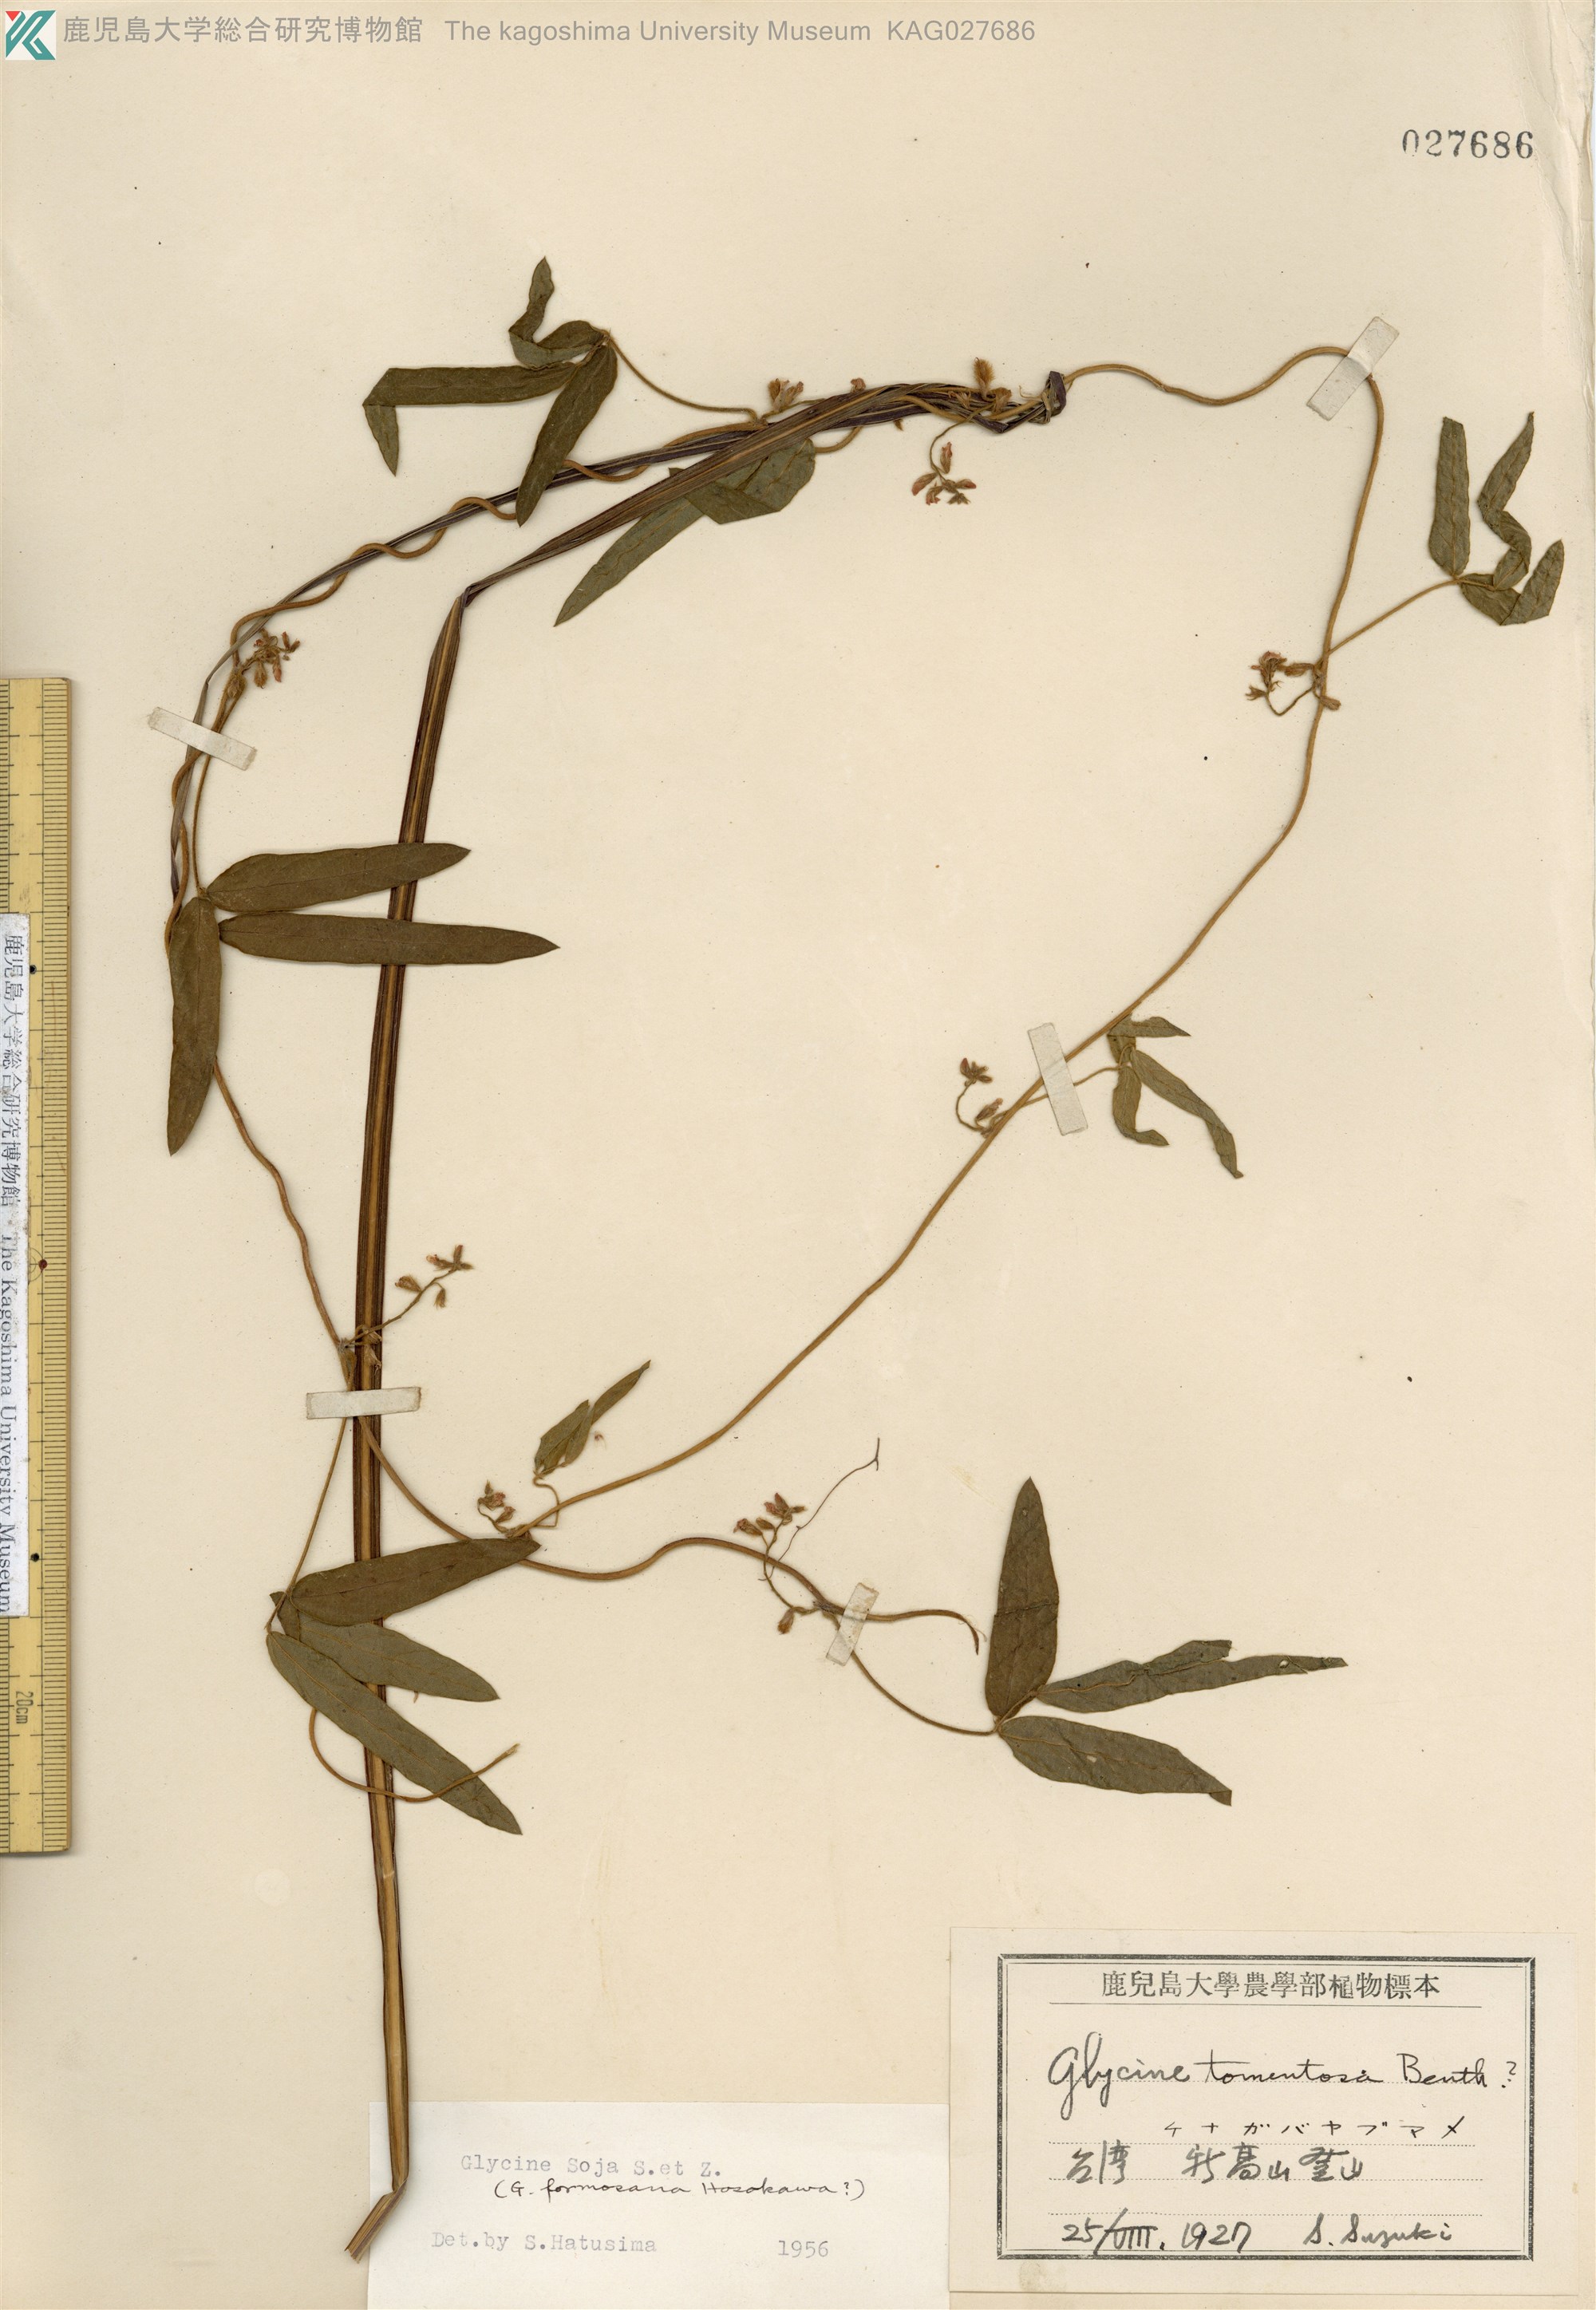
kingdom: Plantae
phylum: Tracheophyta
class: Magnoliopsida
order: Fabales
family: Fabaceae
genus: Glycine
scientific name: Glycine max
